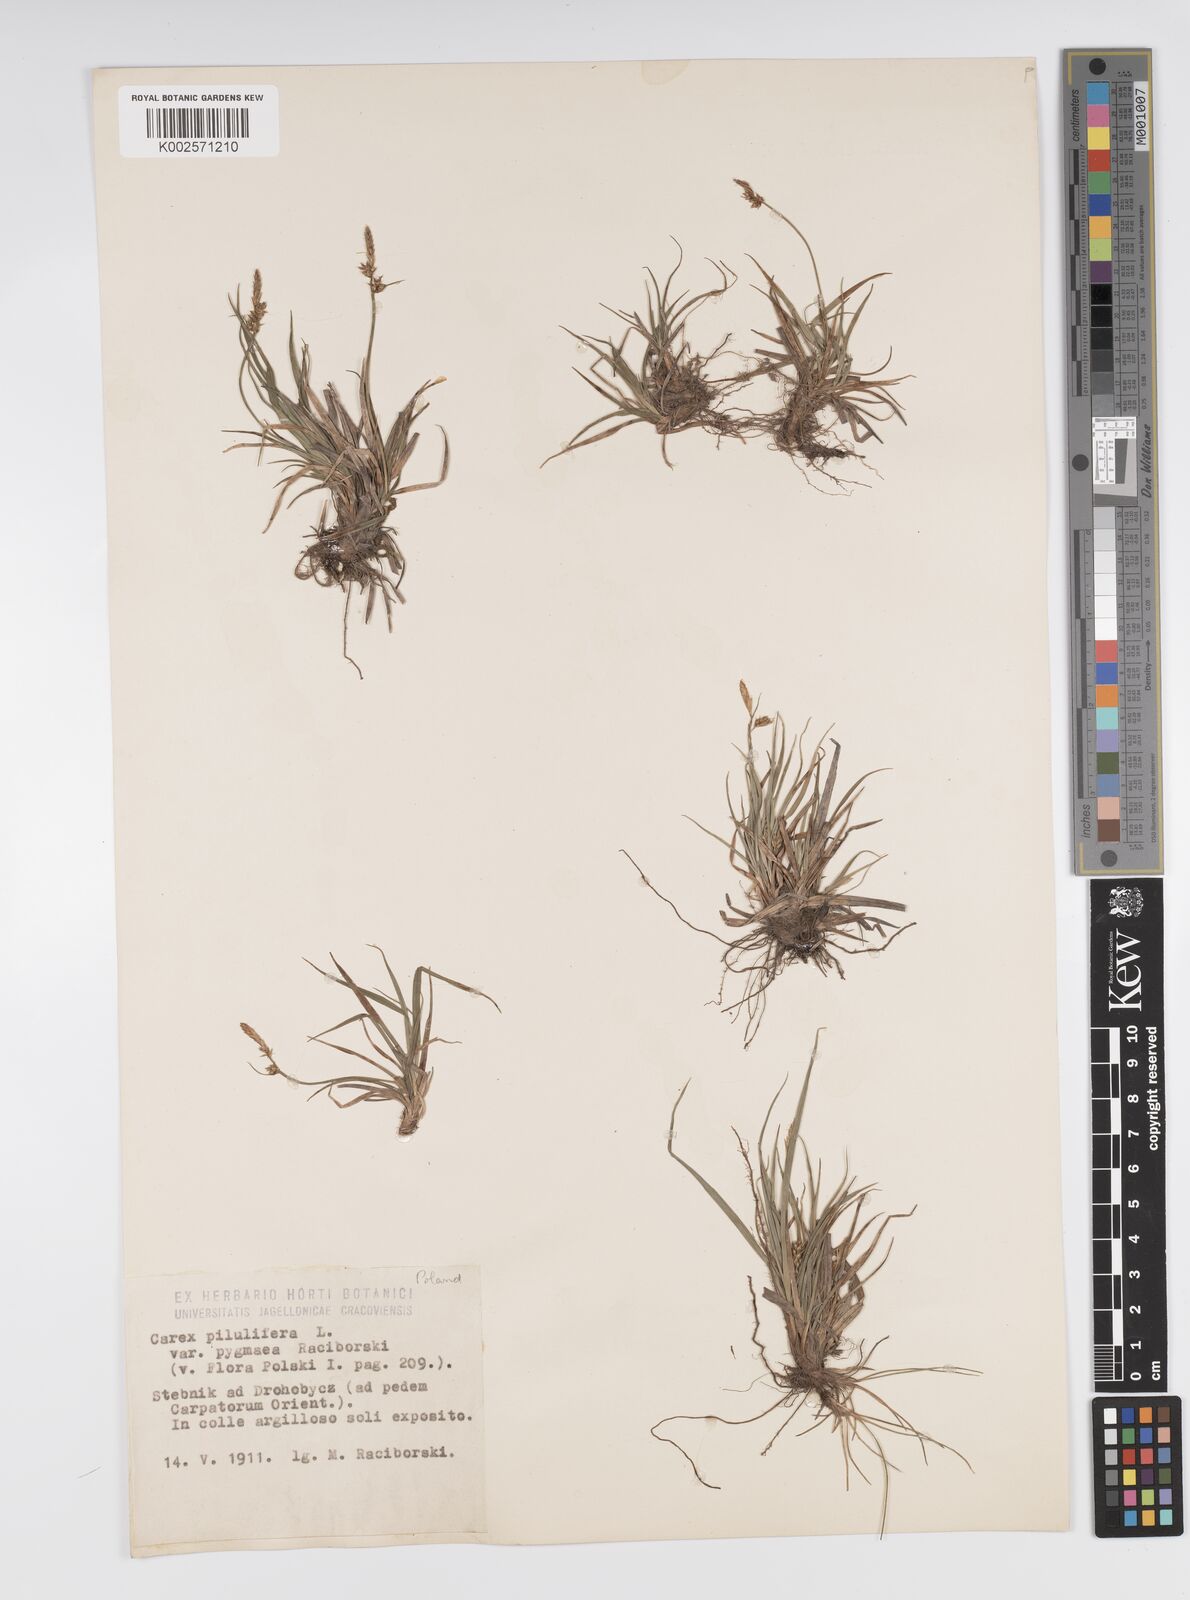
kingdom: Plantae
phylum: Tracheophyta
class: Liliopsida
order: Poales
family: Cyperaceae
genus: Carex
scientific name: Carex pilulifera
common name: Pill sedge
